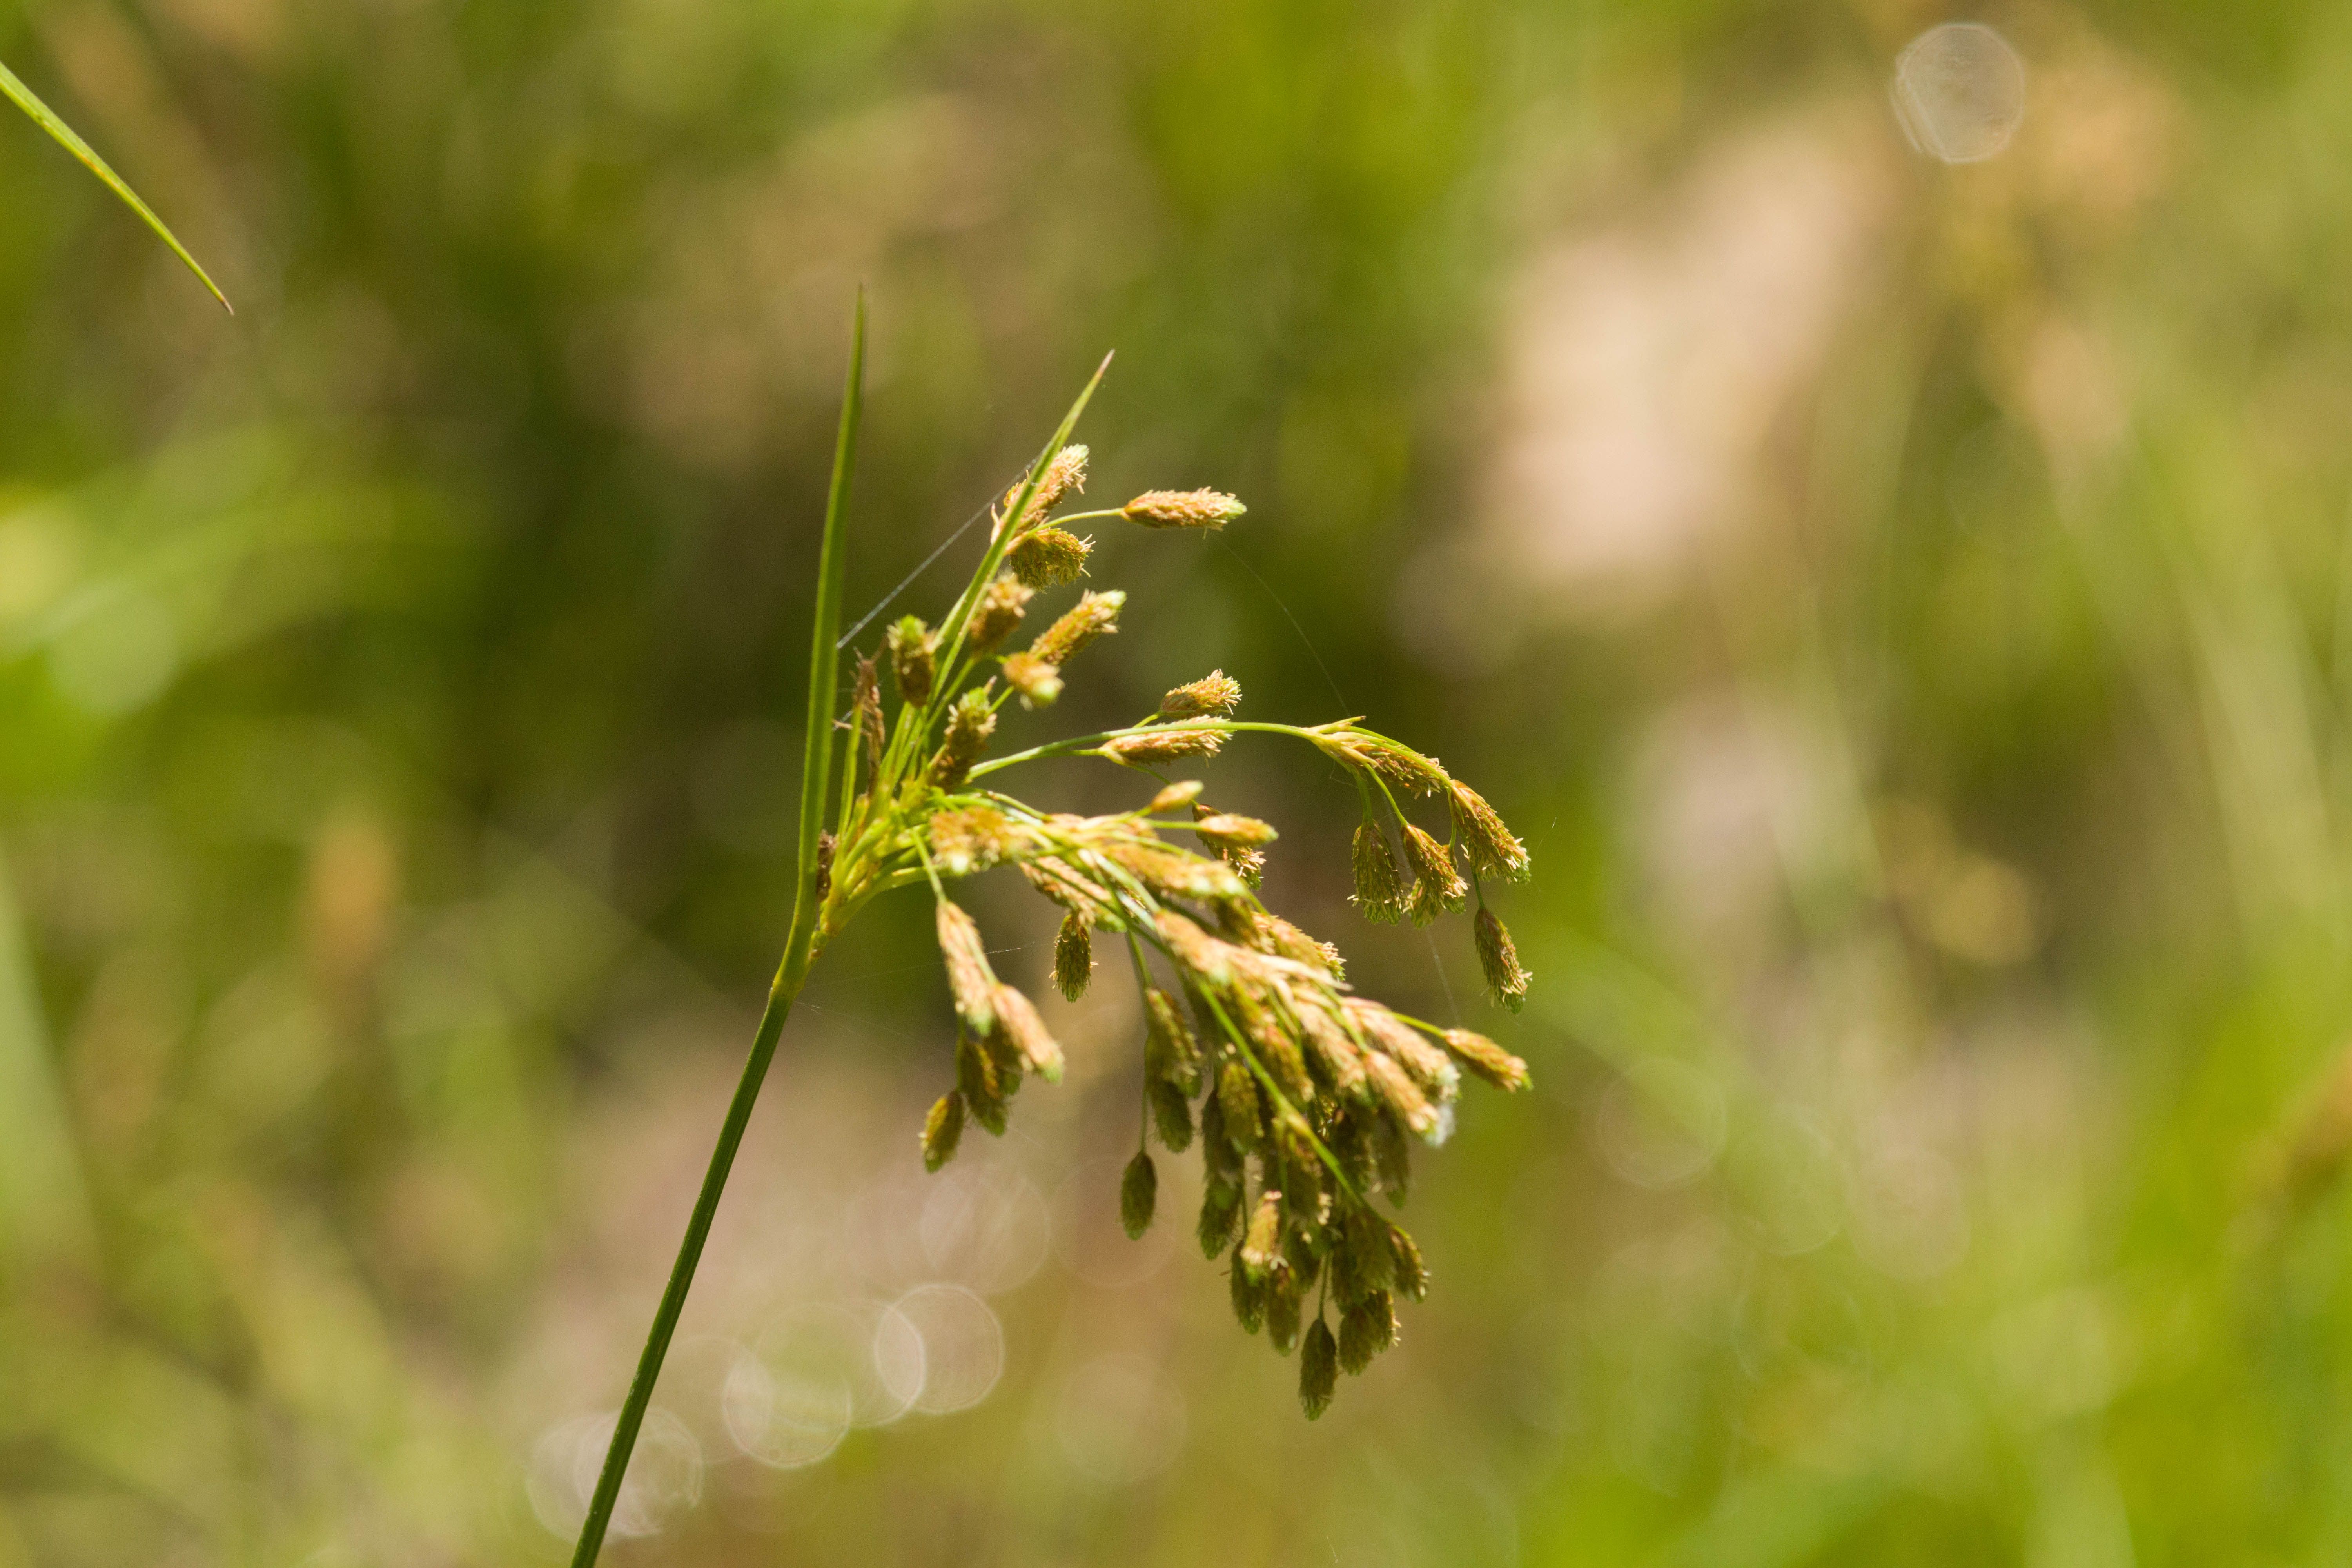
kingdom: Plantae
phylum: Tracheophyta
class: Liliopsida
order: Poales
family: Cyperaceae
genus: Scirpus
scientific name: Scirpus pendulus
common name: Nodding bulrush
